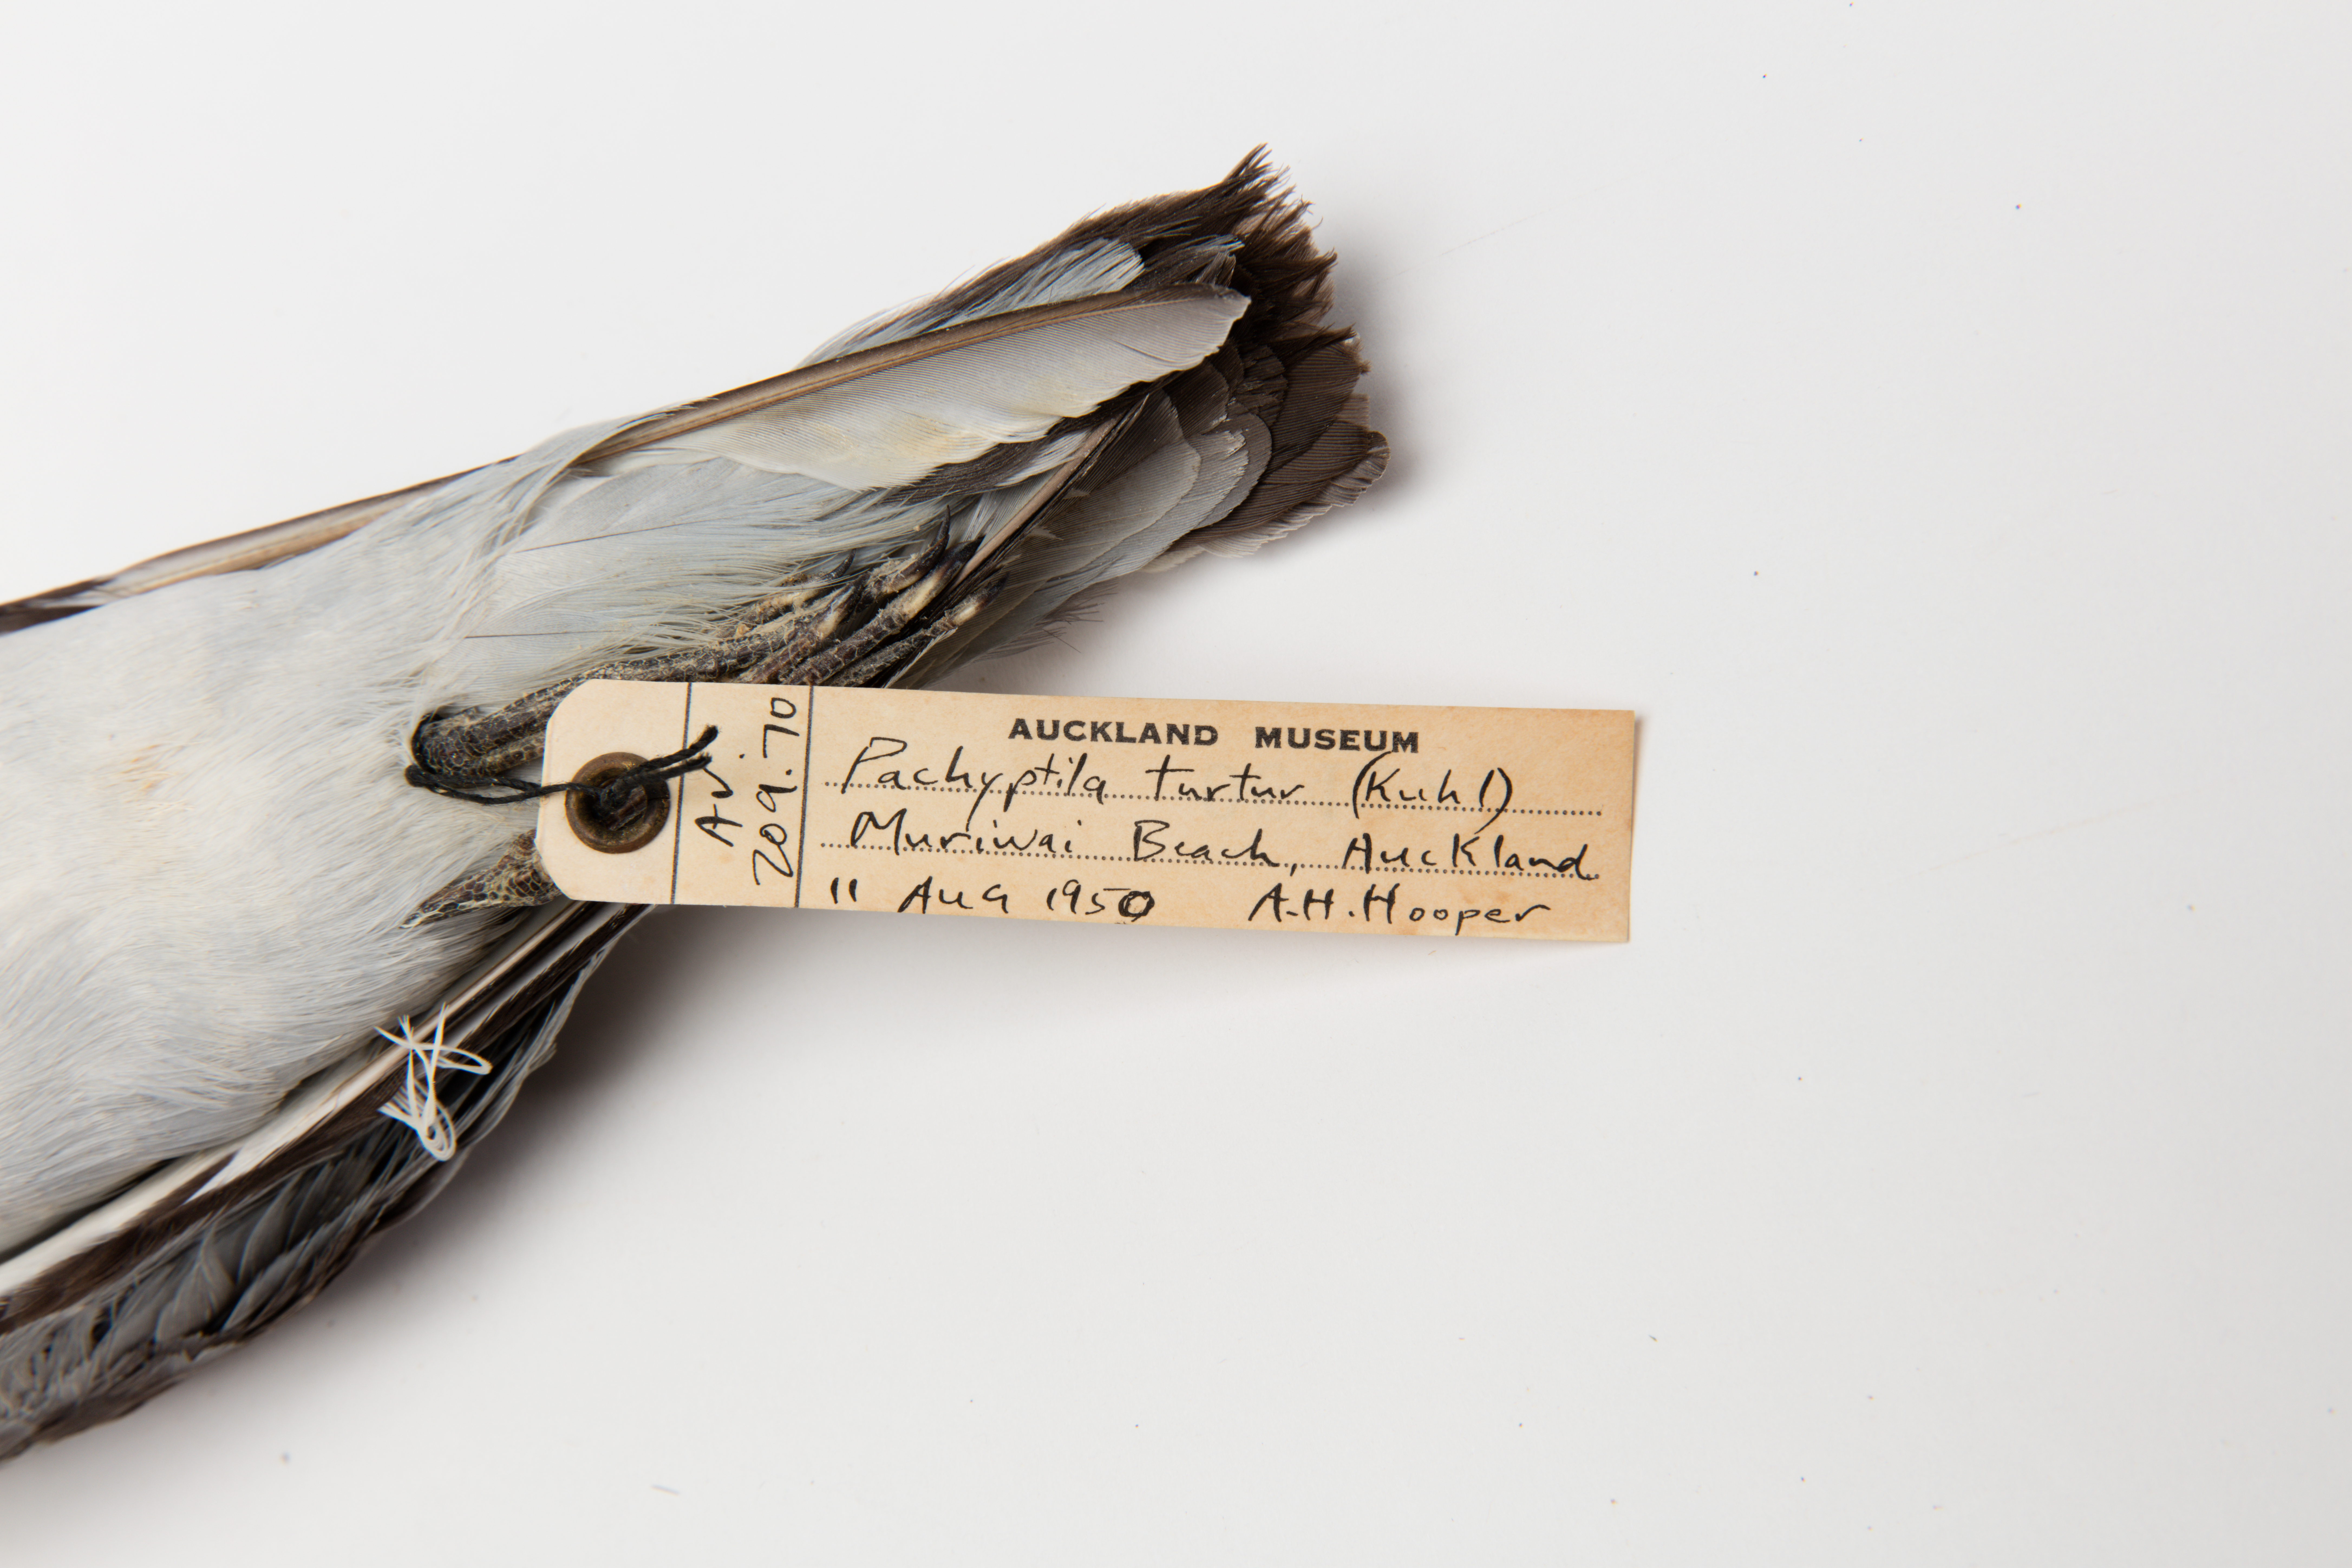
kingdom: Animalia
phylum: Chordata
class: Aves
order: Procellariiformes
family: Procellariidae
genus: Pachyptila
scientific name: Pachyptila turtur
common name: Fairy prion
